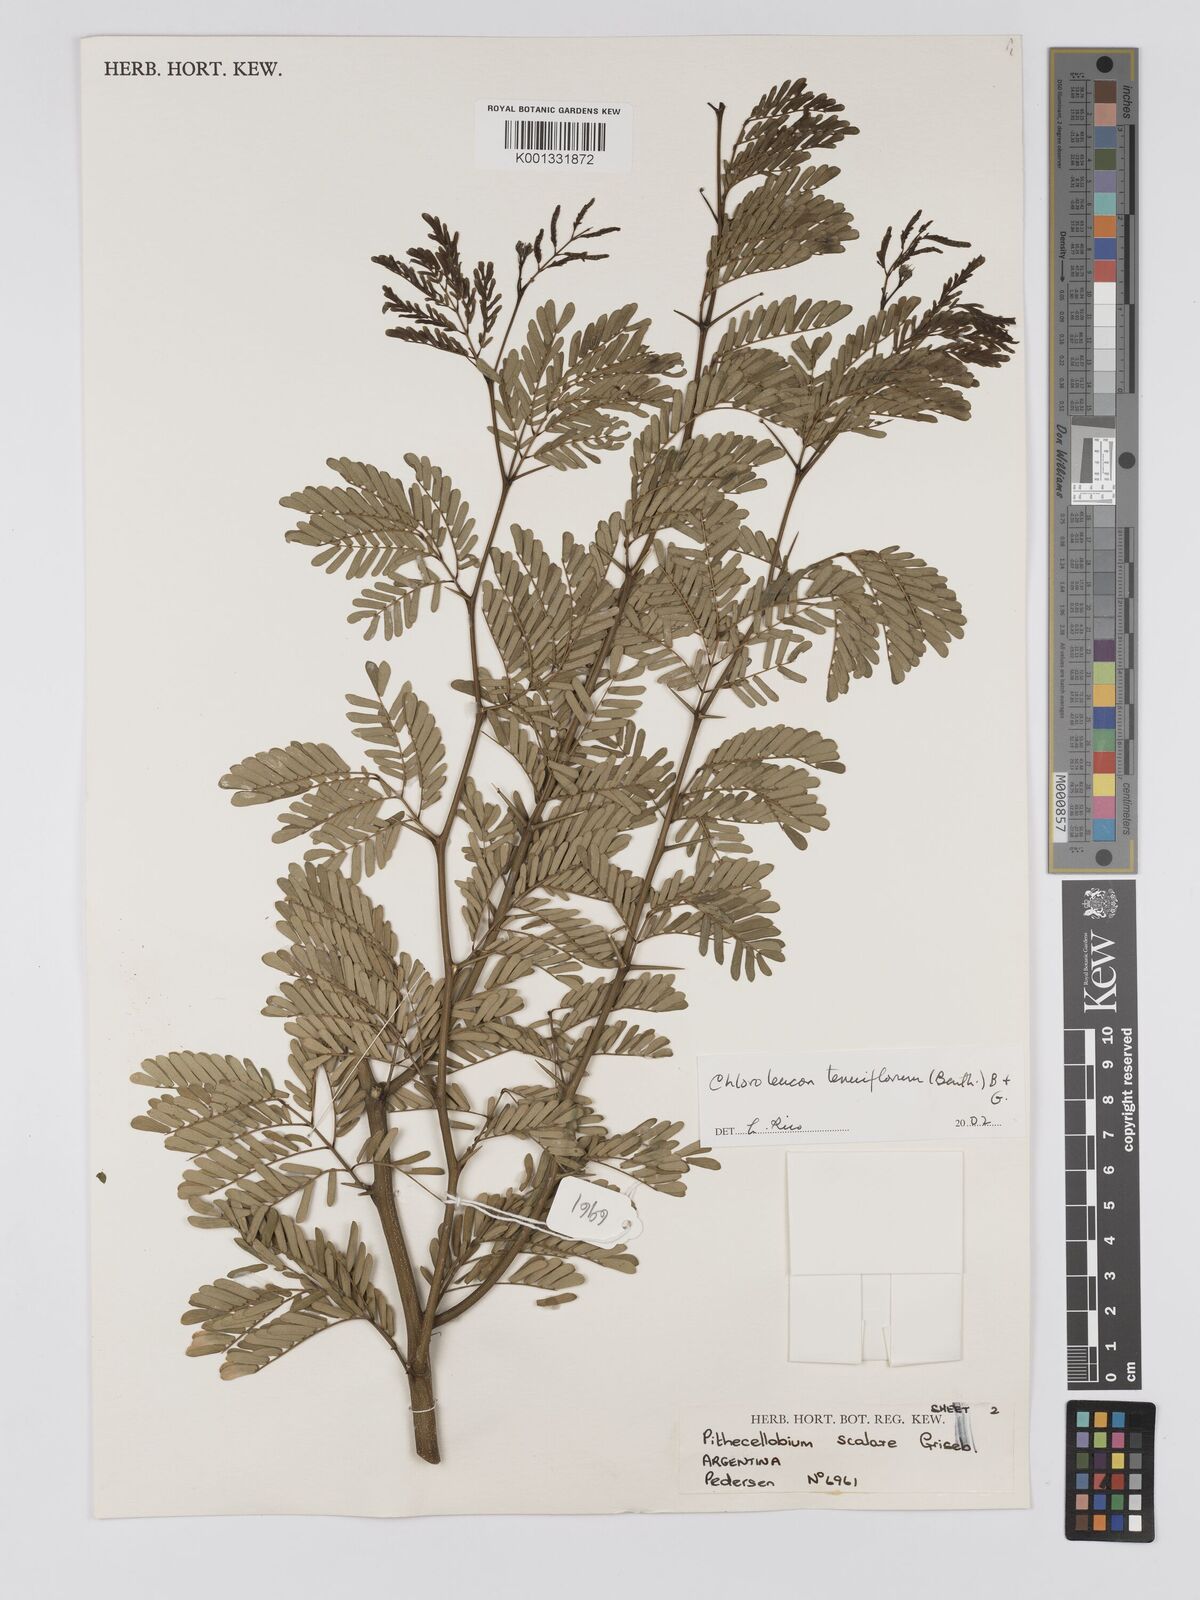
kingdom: Plantae
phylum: Tracheophyta
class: Magnoliopsida
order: Fabales
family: Fabaceae
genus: Chloroleucon
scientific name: Chloroleucon tenuiflorum
